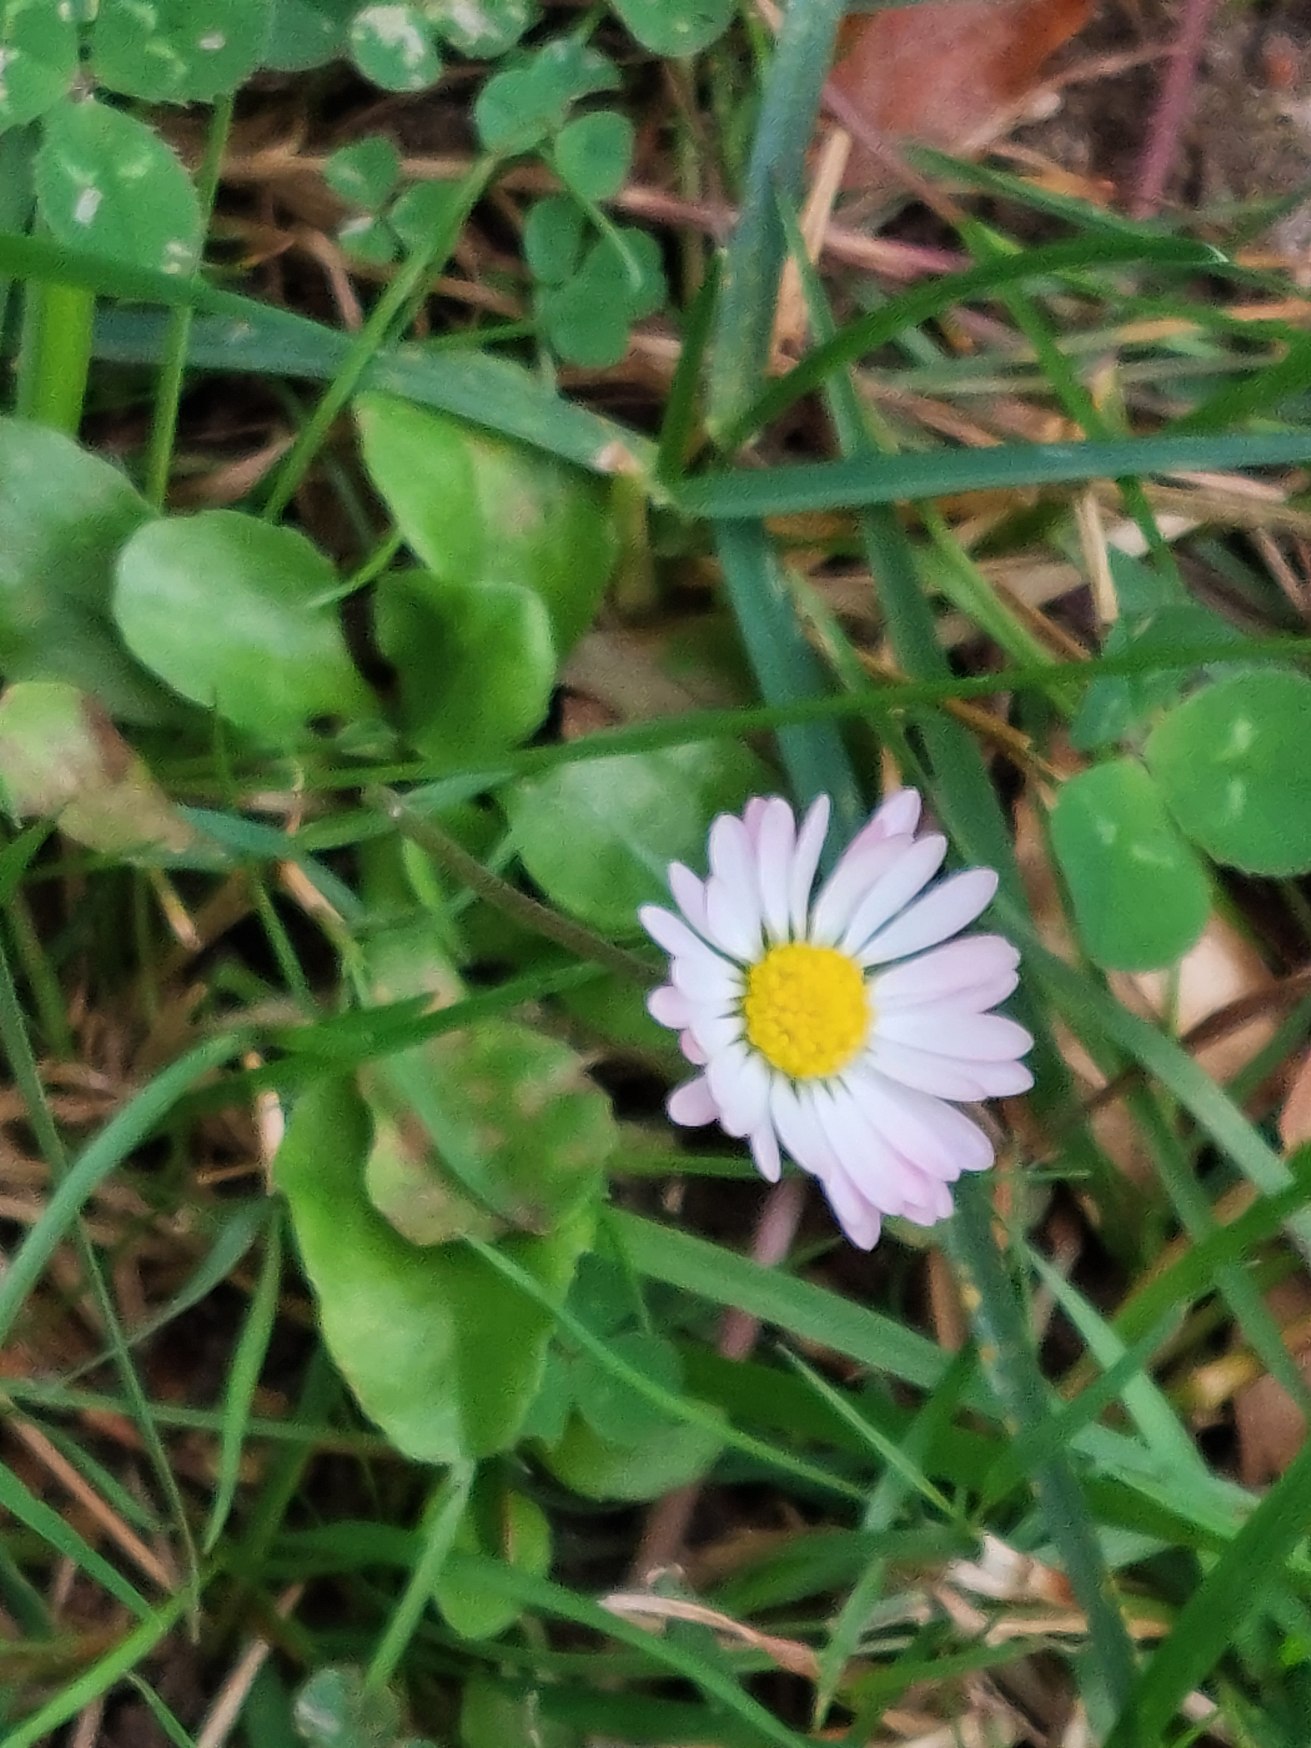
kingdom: Plantae
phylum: Tracheophyta
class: Magnoliopsida
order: Asterales
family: Asteraceae
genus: Bellis
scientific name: Bellis perennis
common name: Tusindfryd
